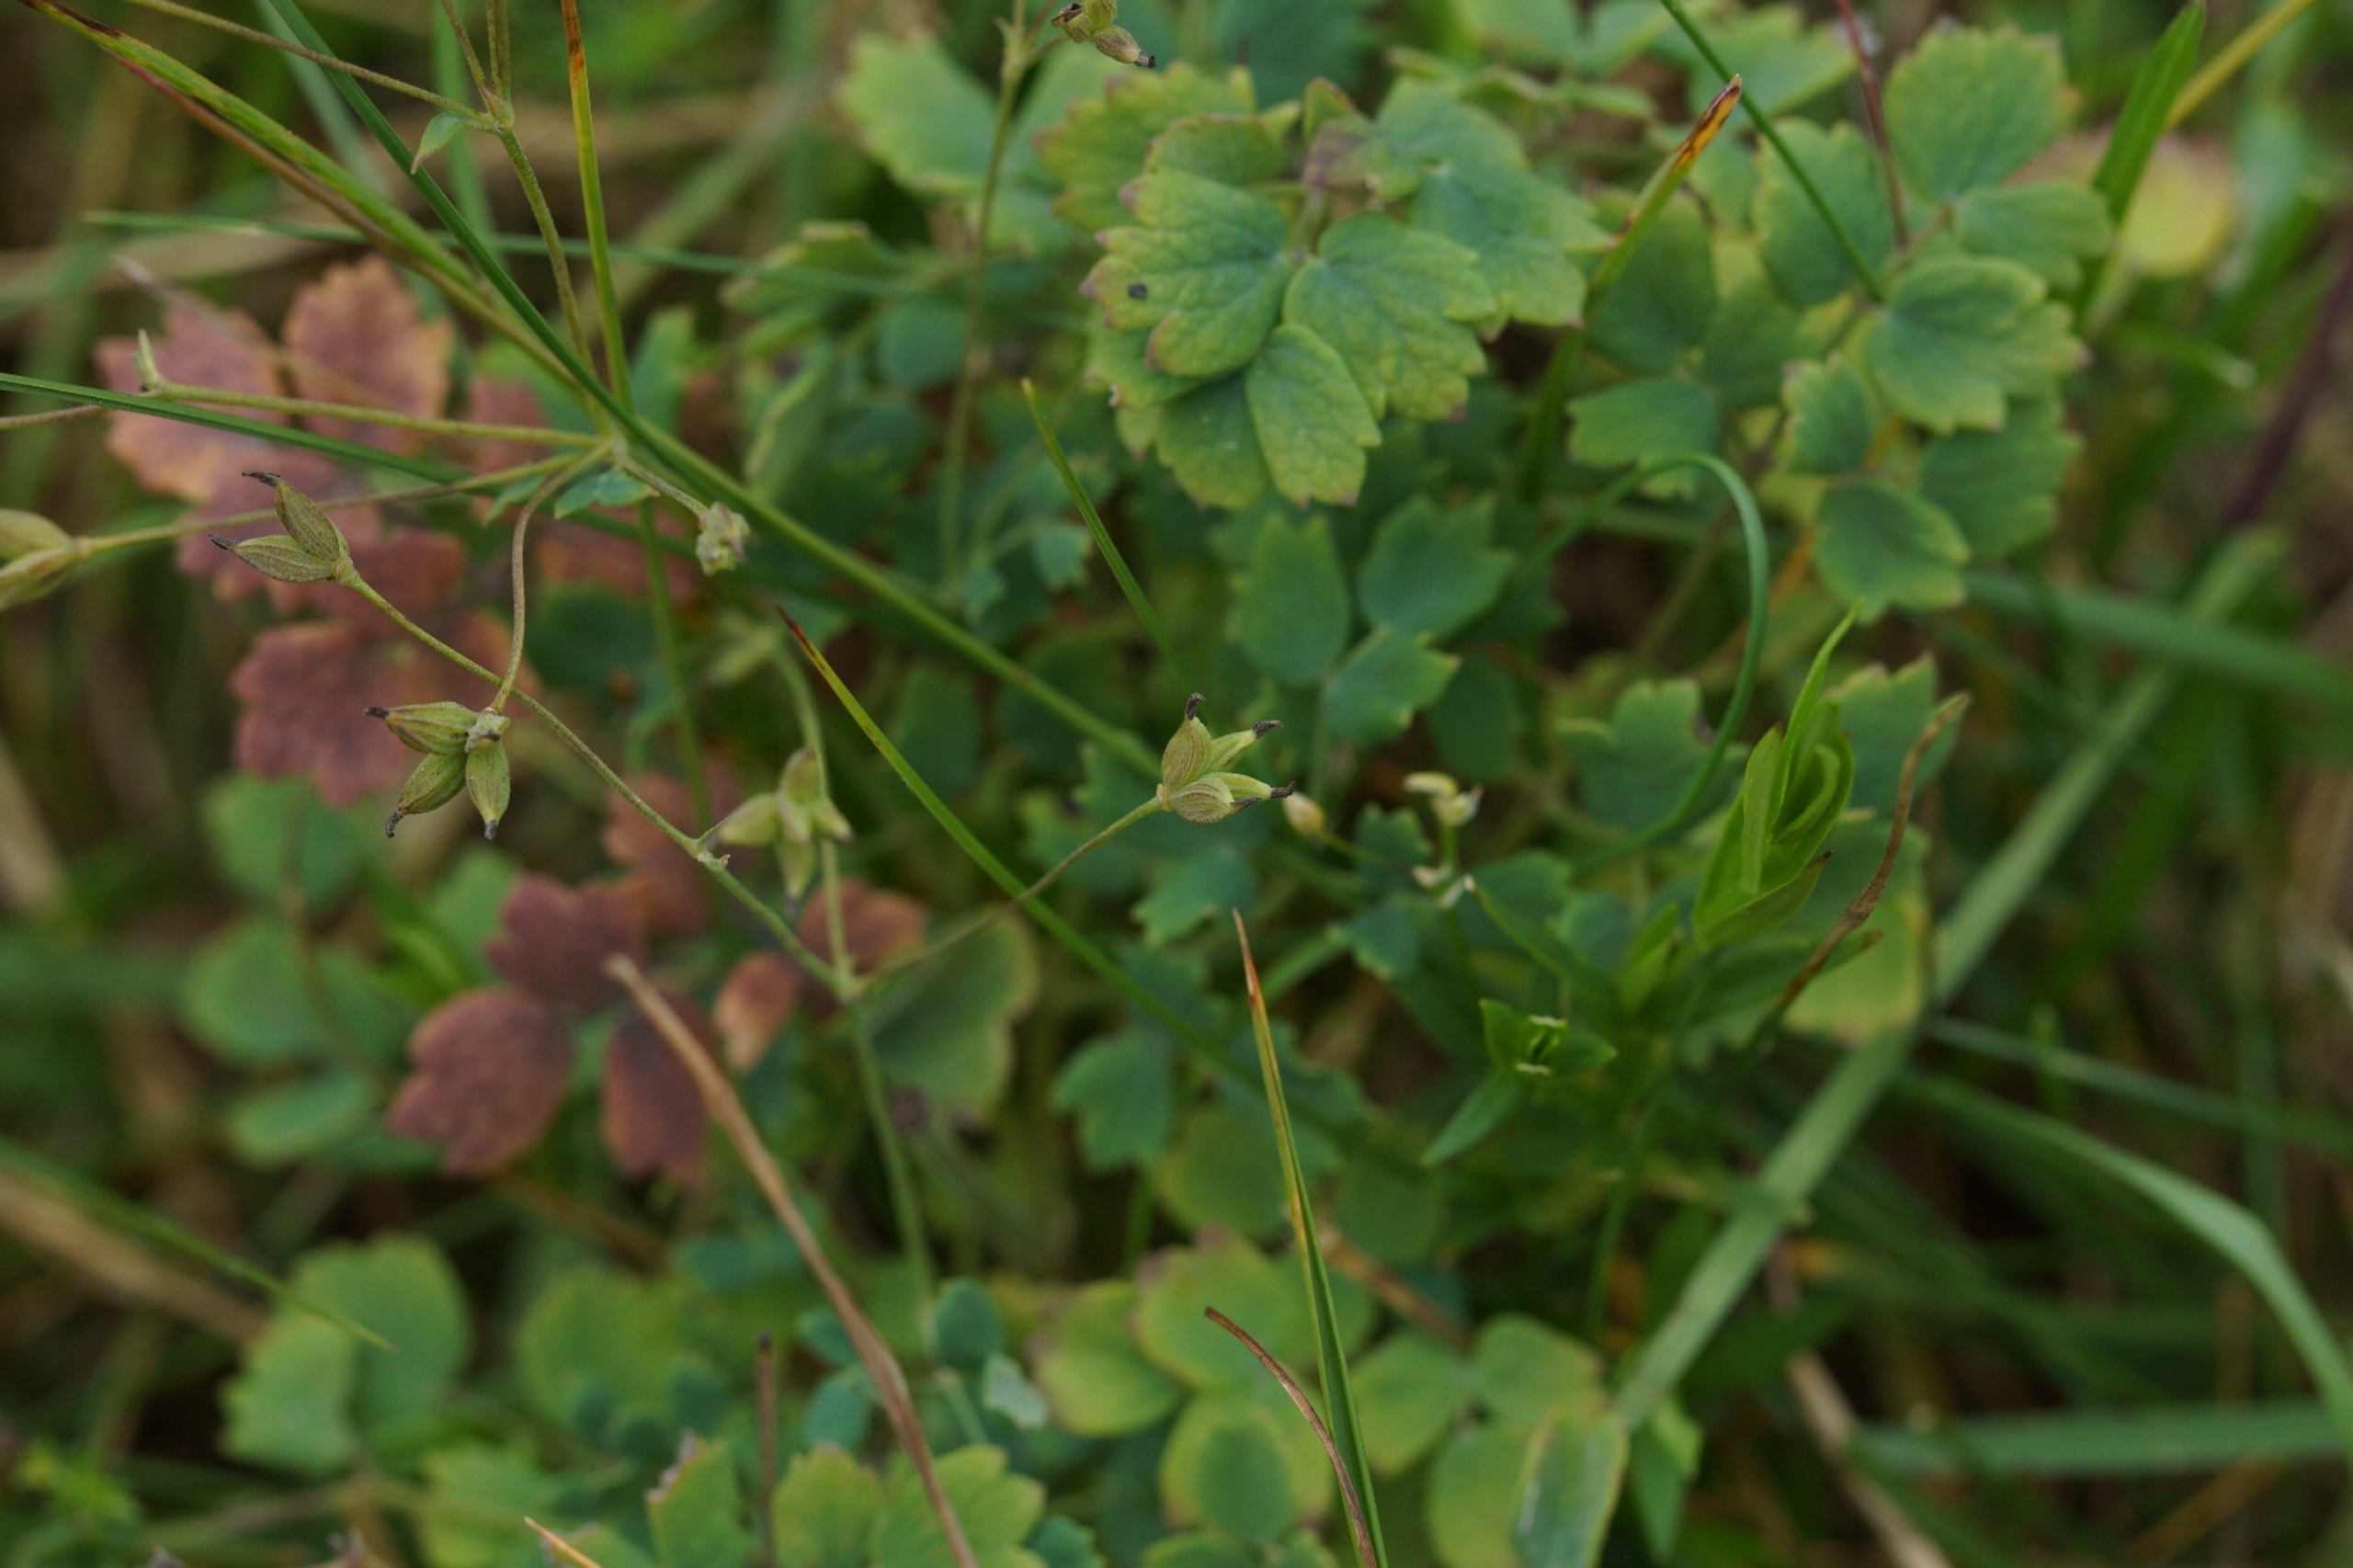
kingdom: Plantae
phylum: Tracheophyta
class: Magnoliopsida
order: Ranunculales
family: Ranunculaceae
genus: Thalictrum
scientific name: Thalictrum minus
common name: Liden frøstjerne
